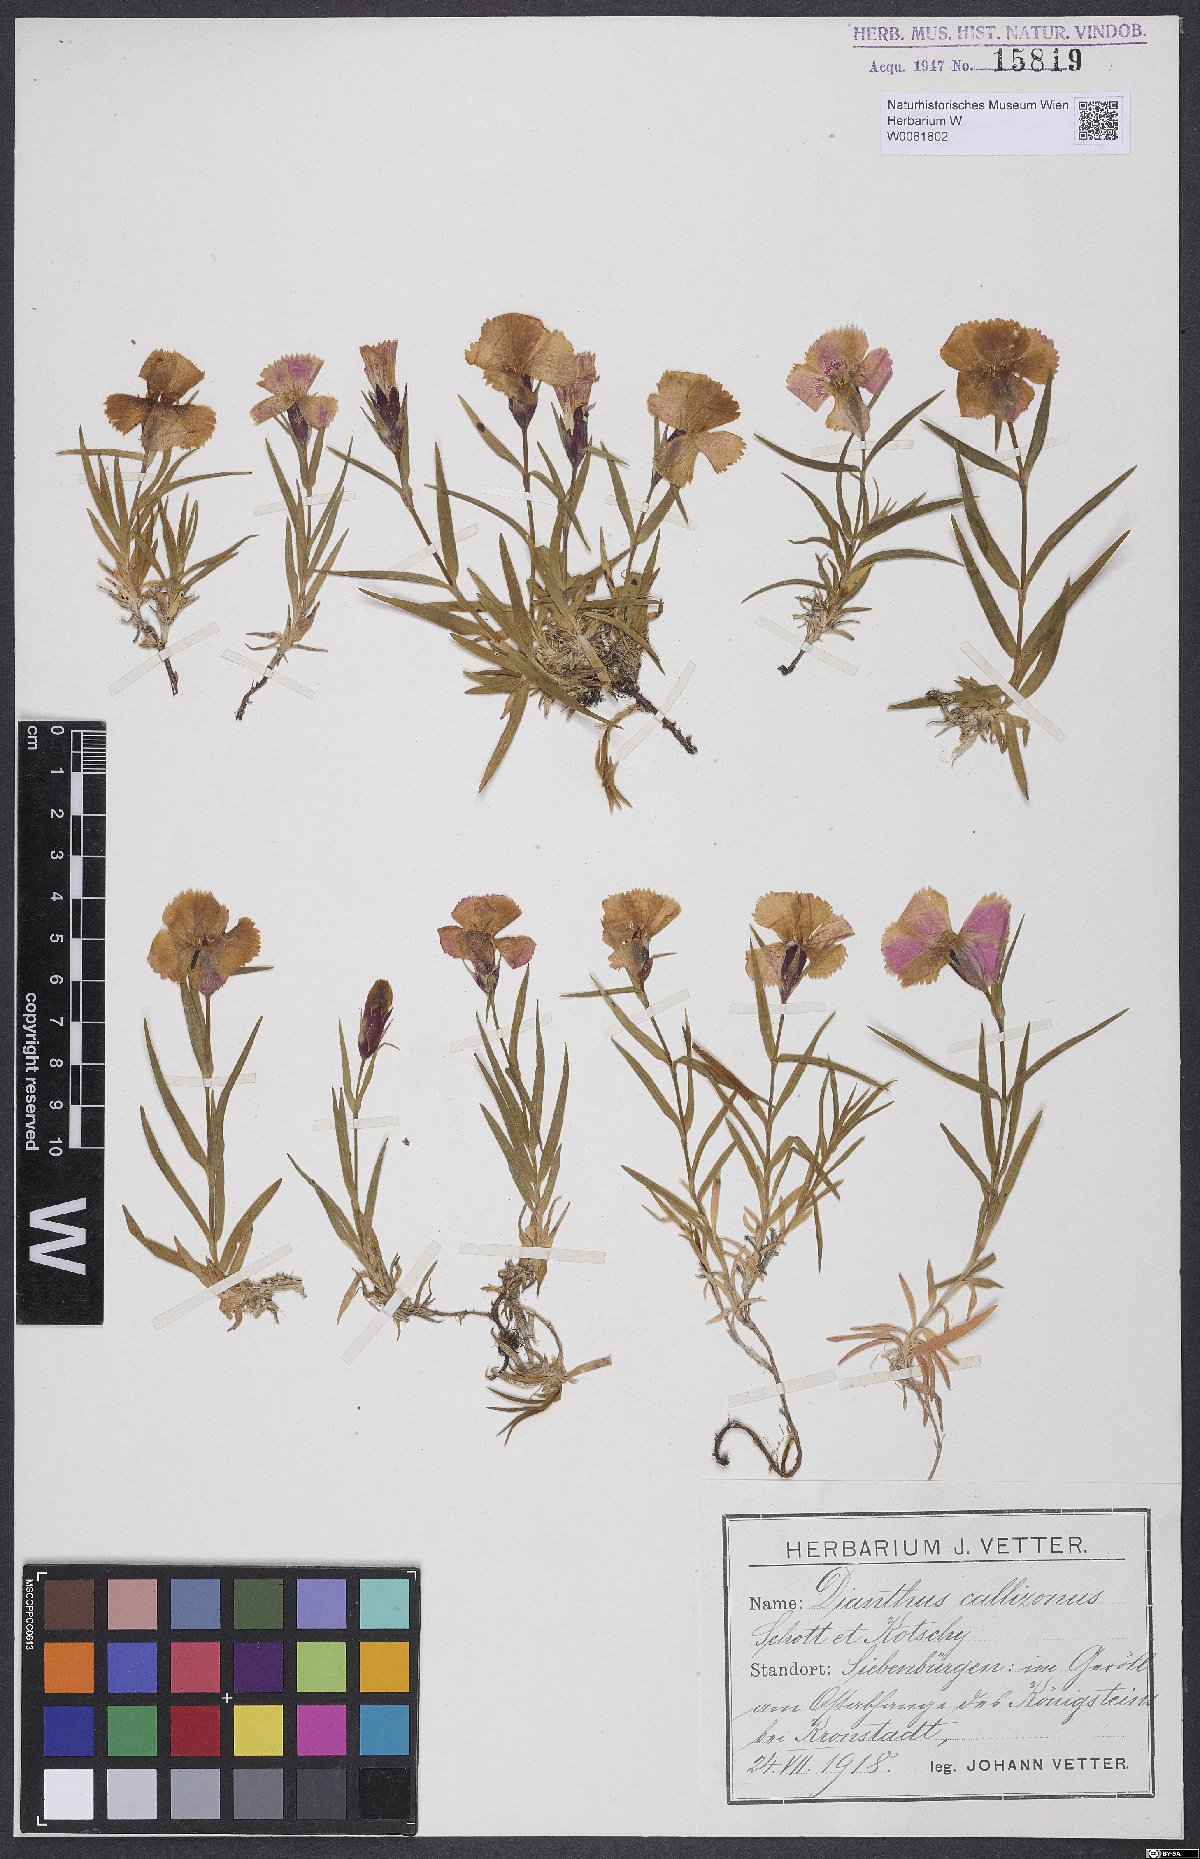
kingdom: Plantae
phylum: Tracheophyta
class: Magnoliopsida
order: Caryophyllales
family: Caryophyllaceae
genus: Dianthus
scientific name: Dianthus callizonus
